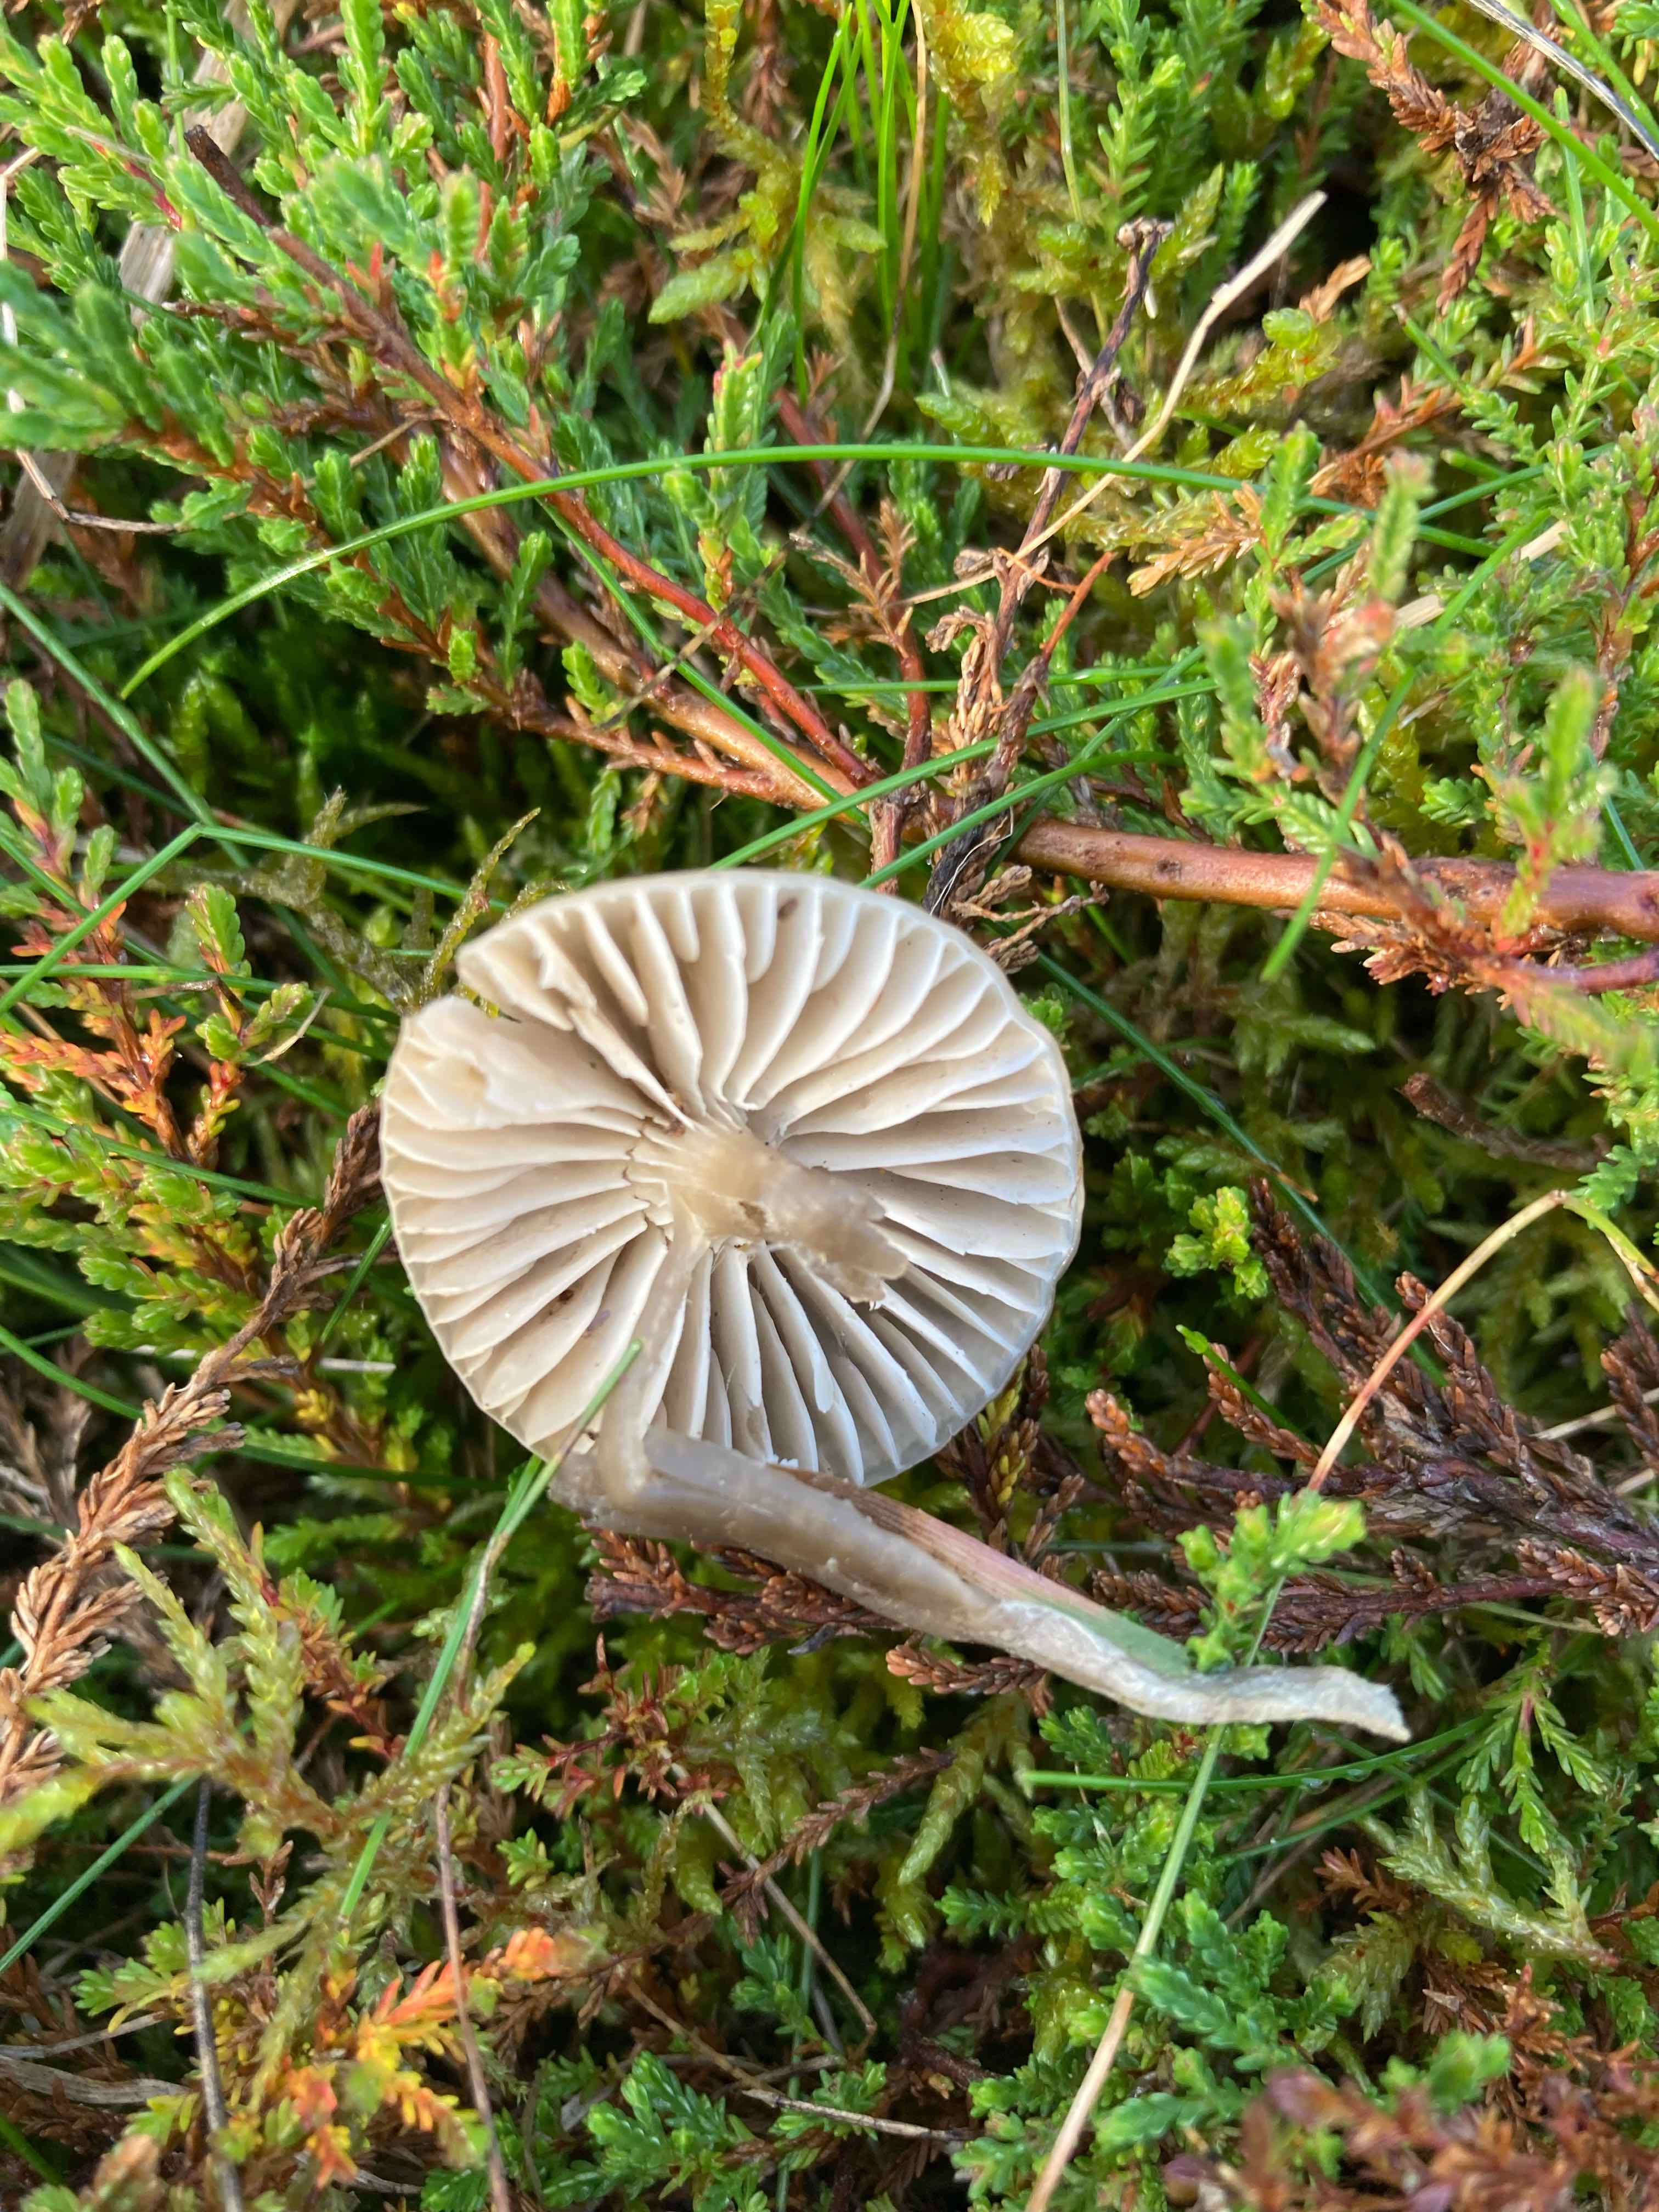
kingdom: Fungi
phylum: Basidiomycota
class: Agaricomycetes
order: Agaricales
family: Hygrophoraceae
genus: Gliophorus
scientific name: Gliophorus irrigatus
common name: slimet vokshat
